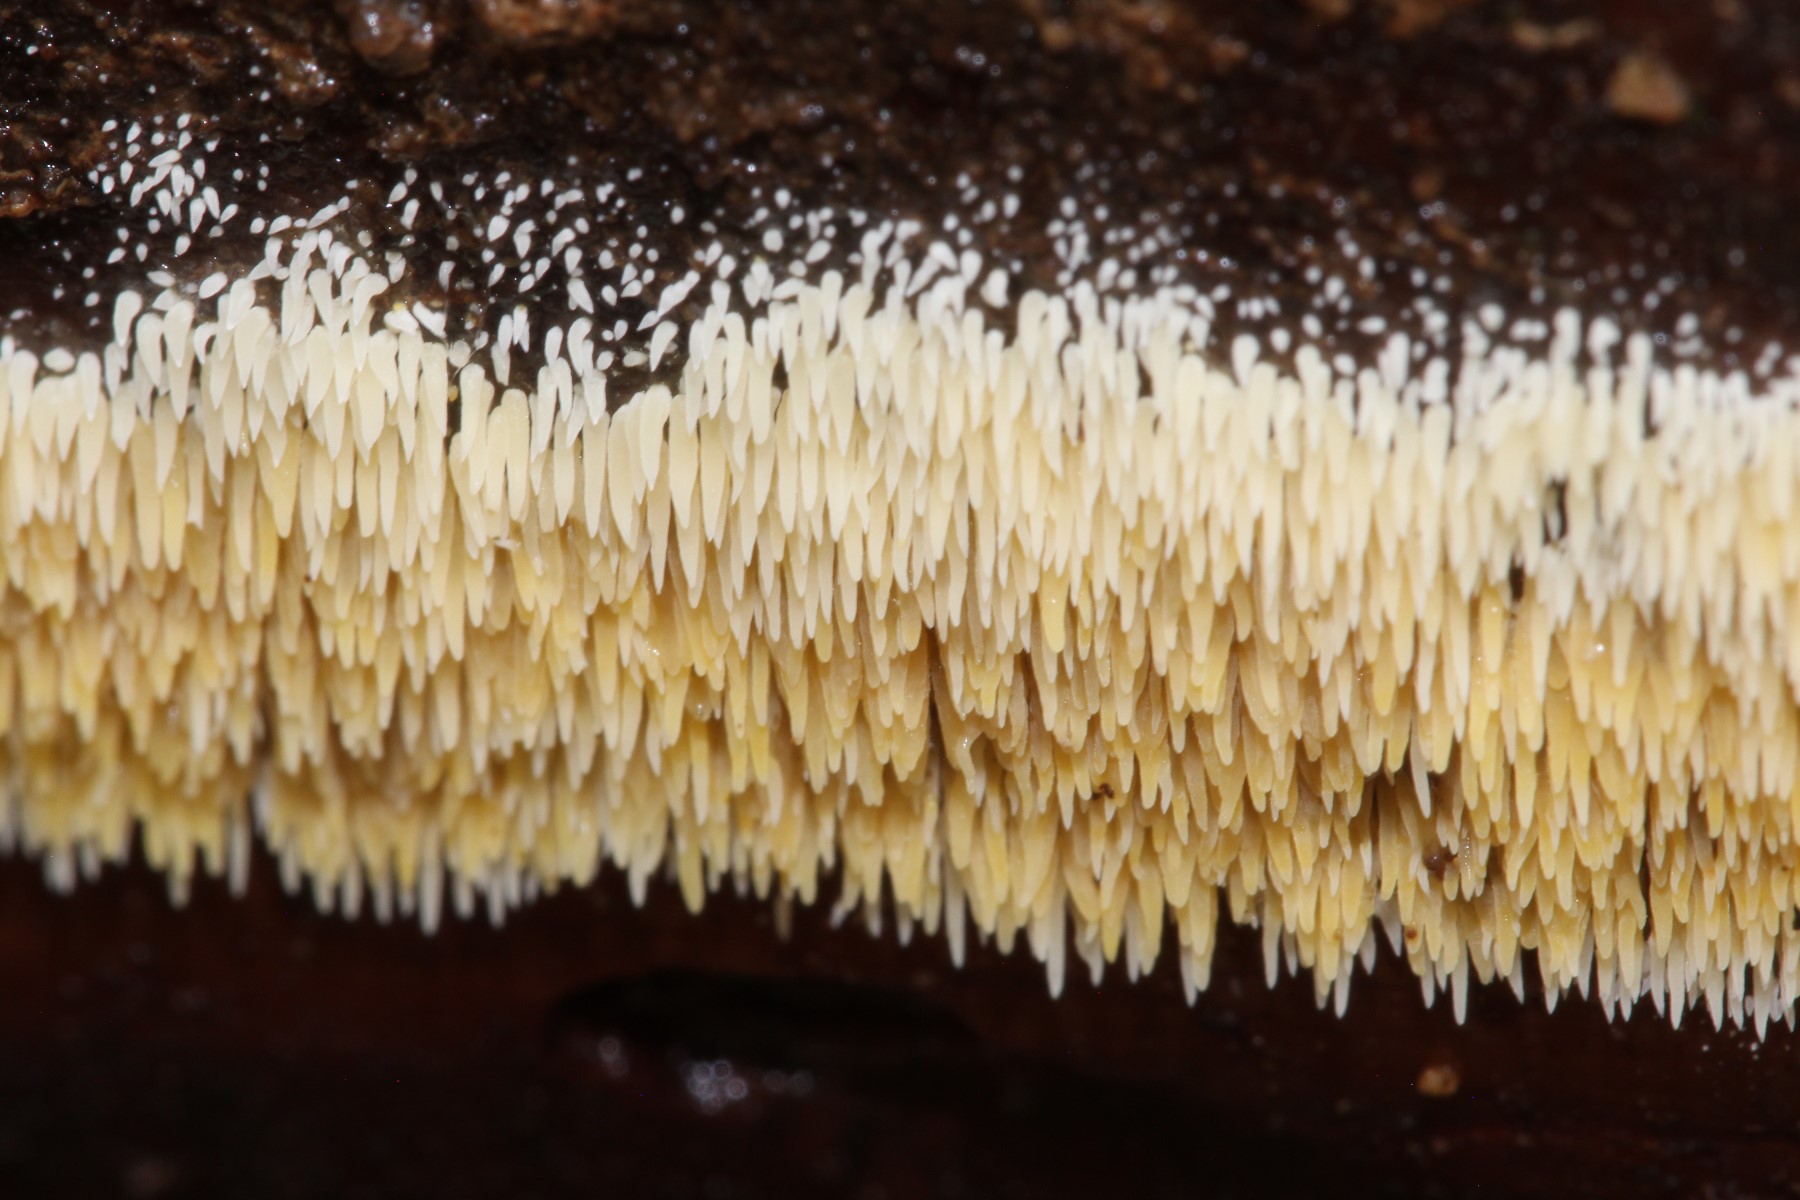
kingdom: Fungi
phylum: Basidiomycota
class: Agaricomycetes
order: Agaricales
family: Clavariaceae
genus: Mucronella
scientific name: Mucronella
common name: hængepig
